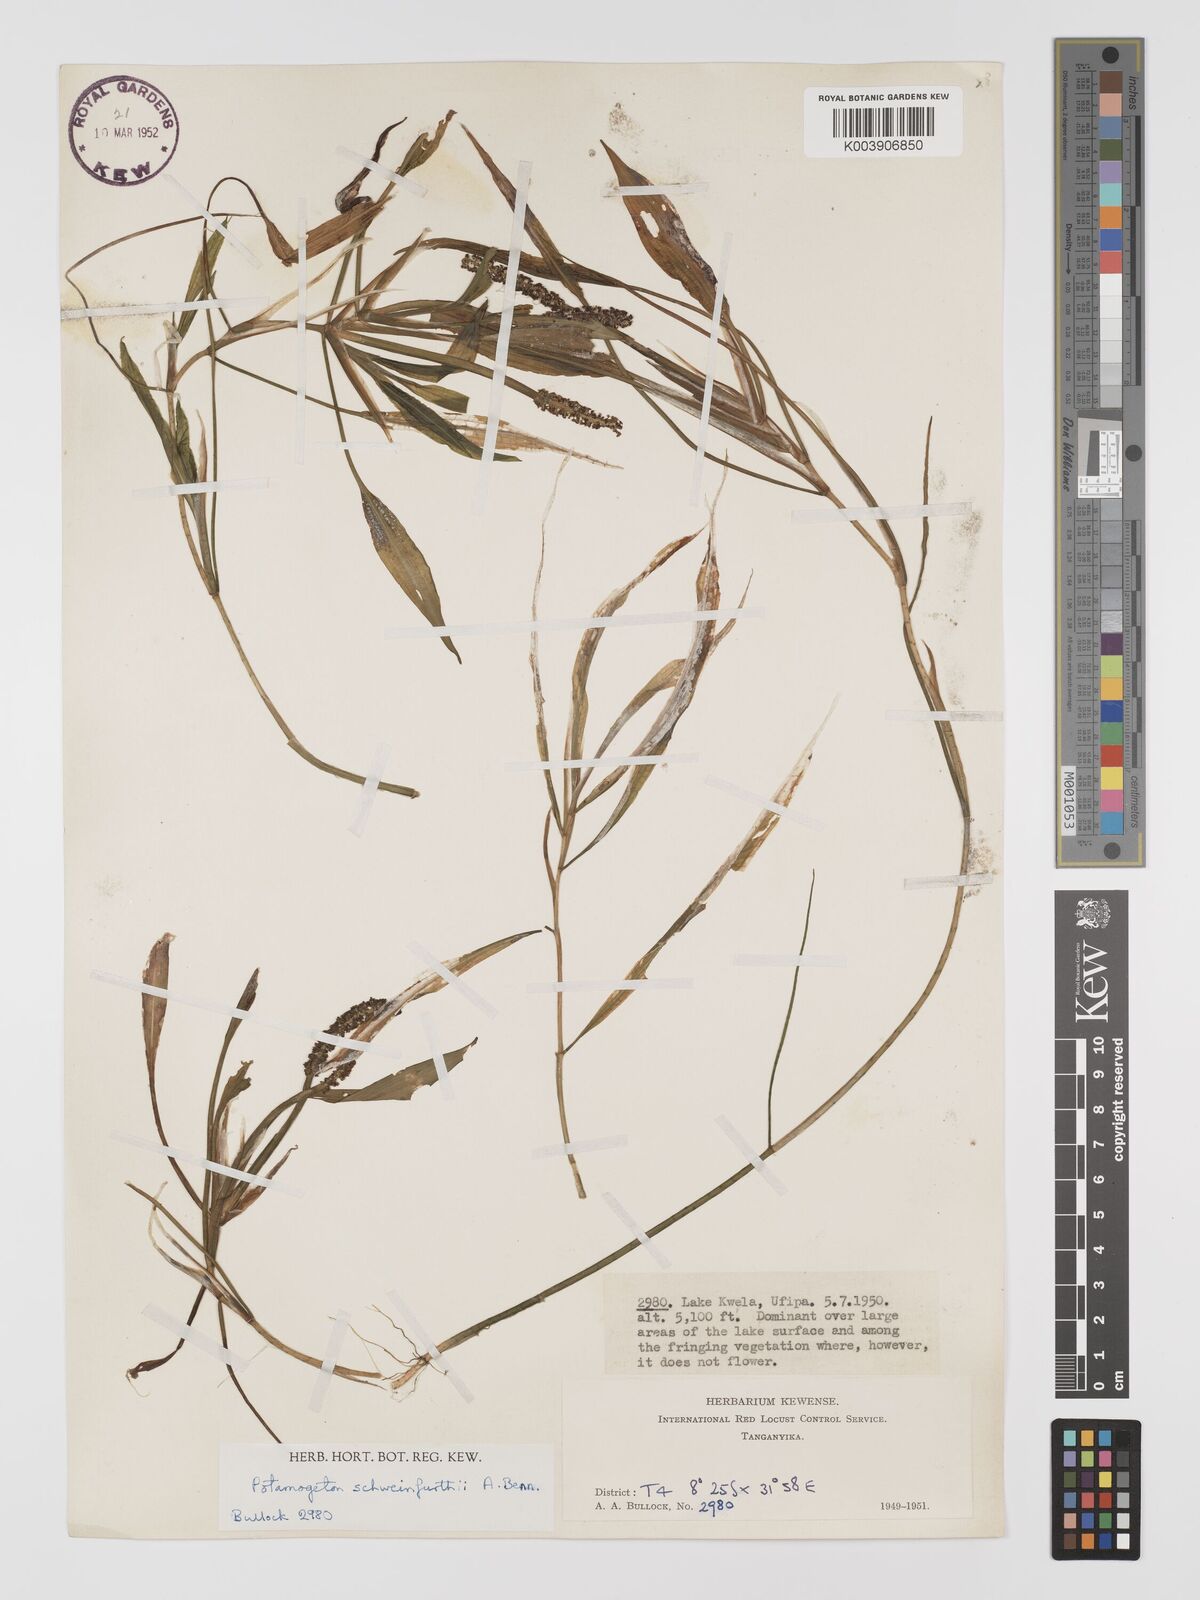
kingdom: Plantae
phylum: Tracheophyta
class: Liliopsida
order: Alismatales
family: Potamogetonaceae
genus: Potamogeton
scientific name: Potamogeton schweinfurthii
